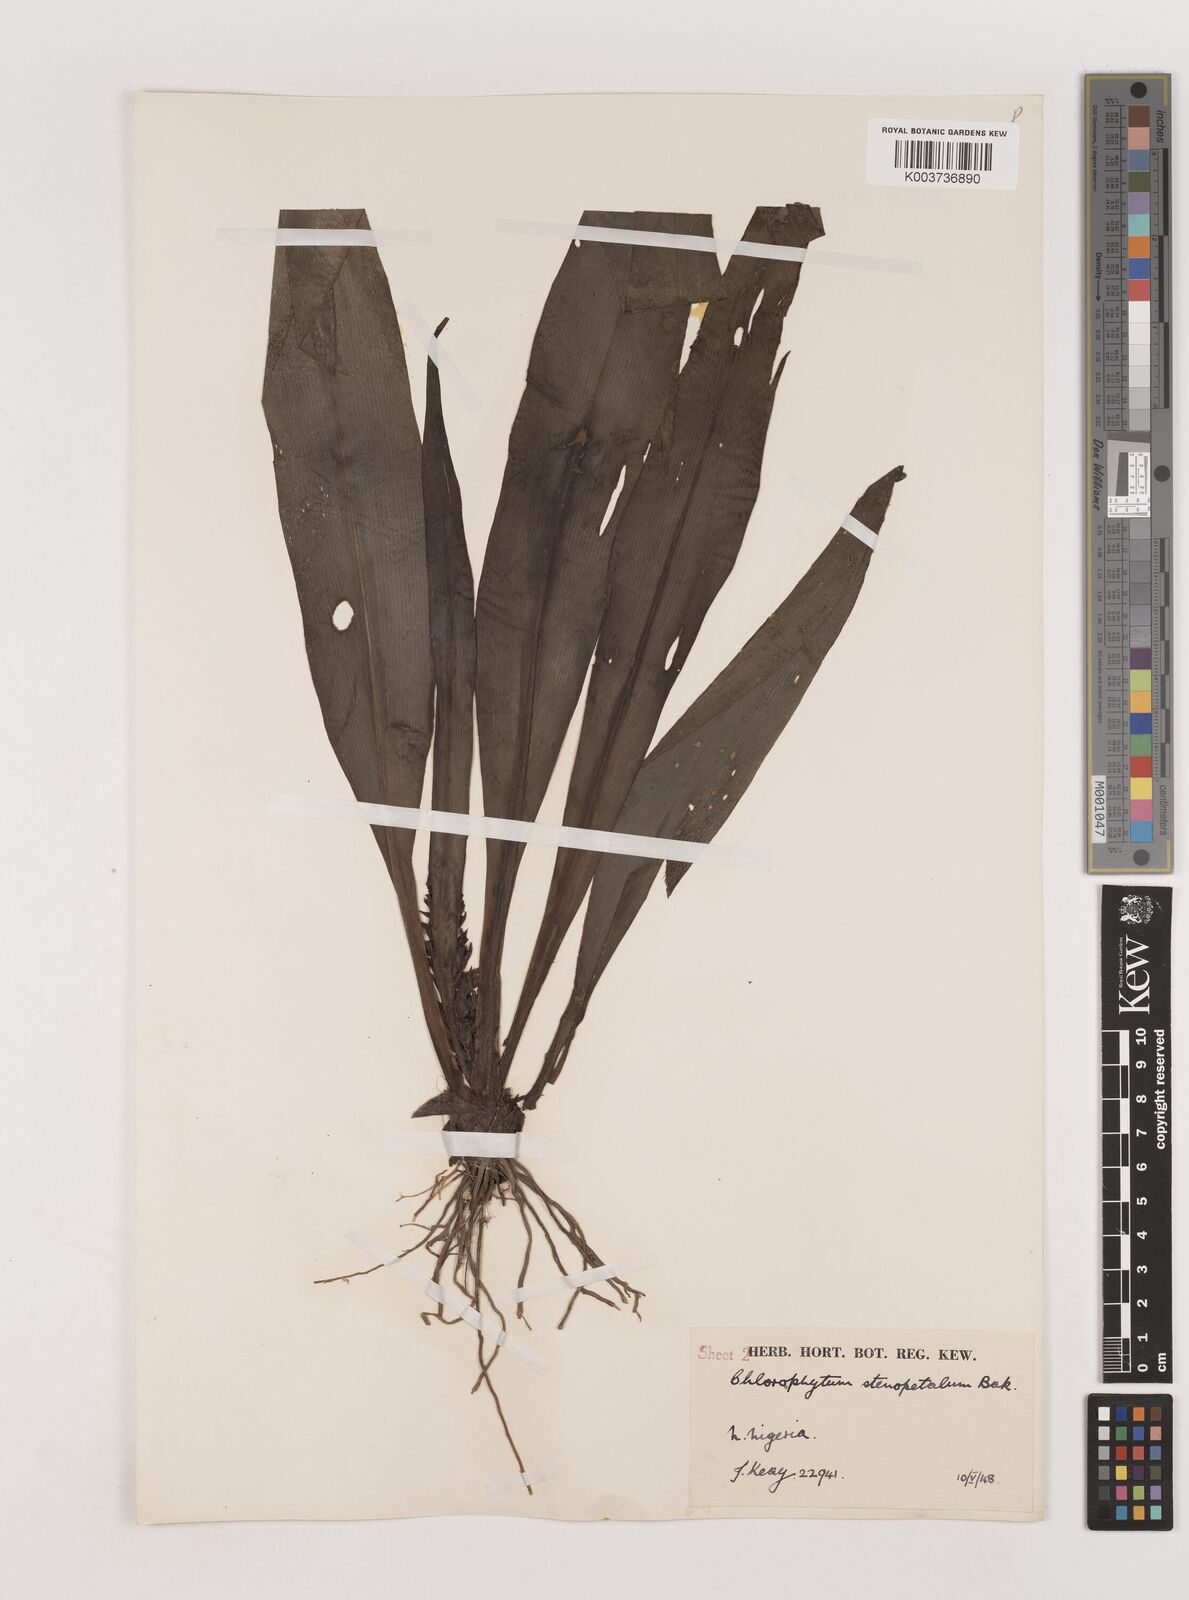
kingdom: Plantae
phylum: Tracheophyta
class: Liliopsida
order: Asparagales
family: Asparagaceae
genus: Chlorophytum
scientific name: Chlorophytum stenopetalum
